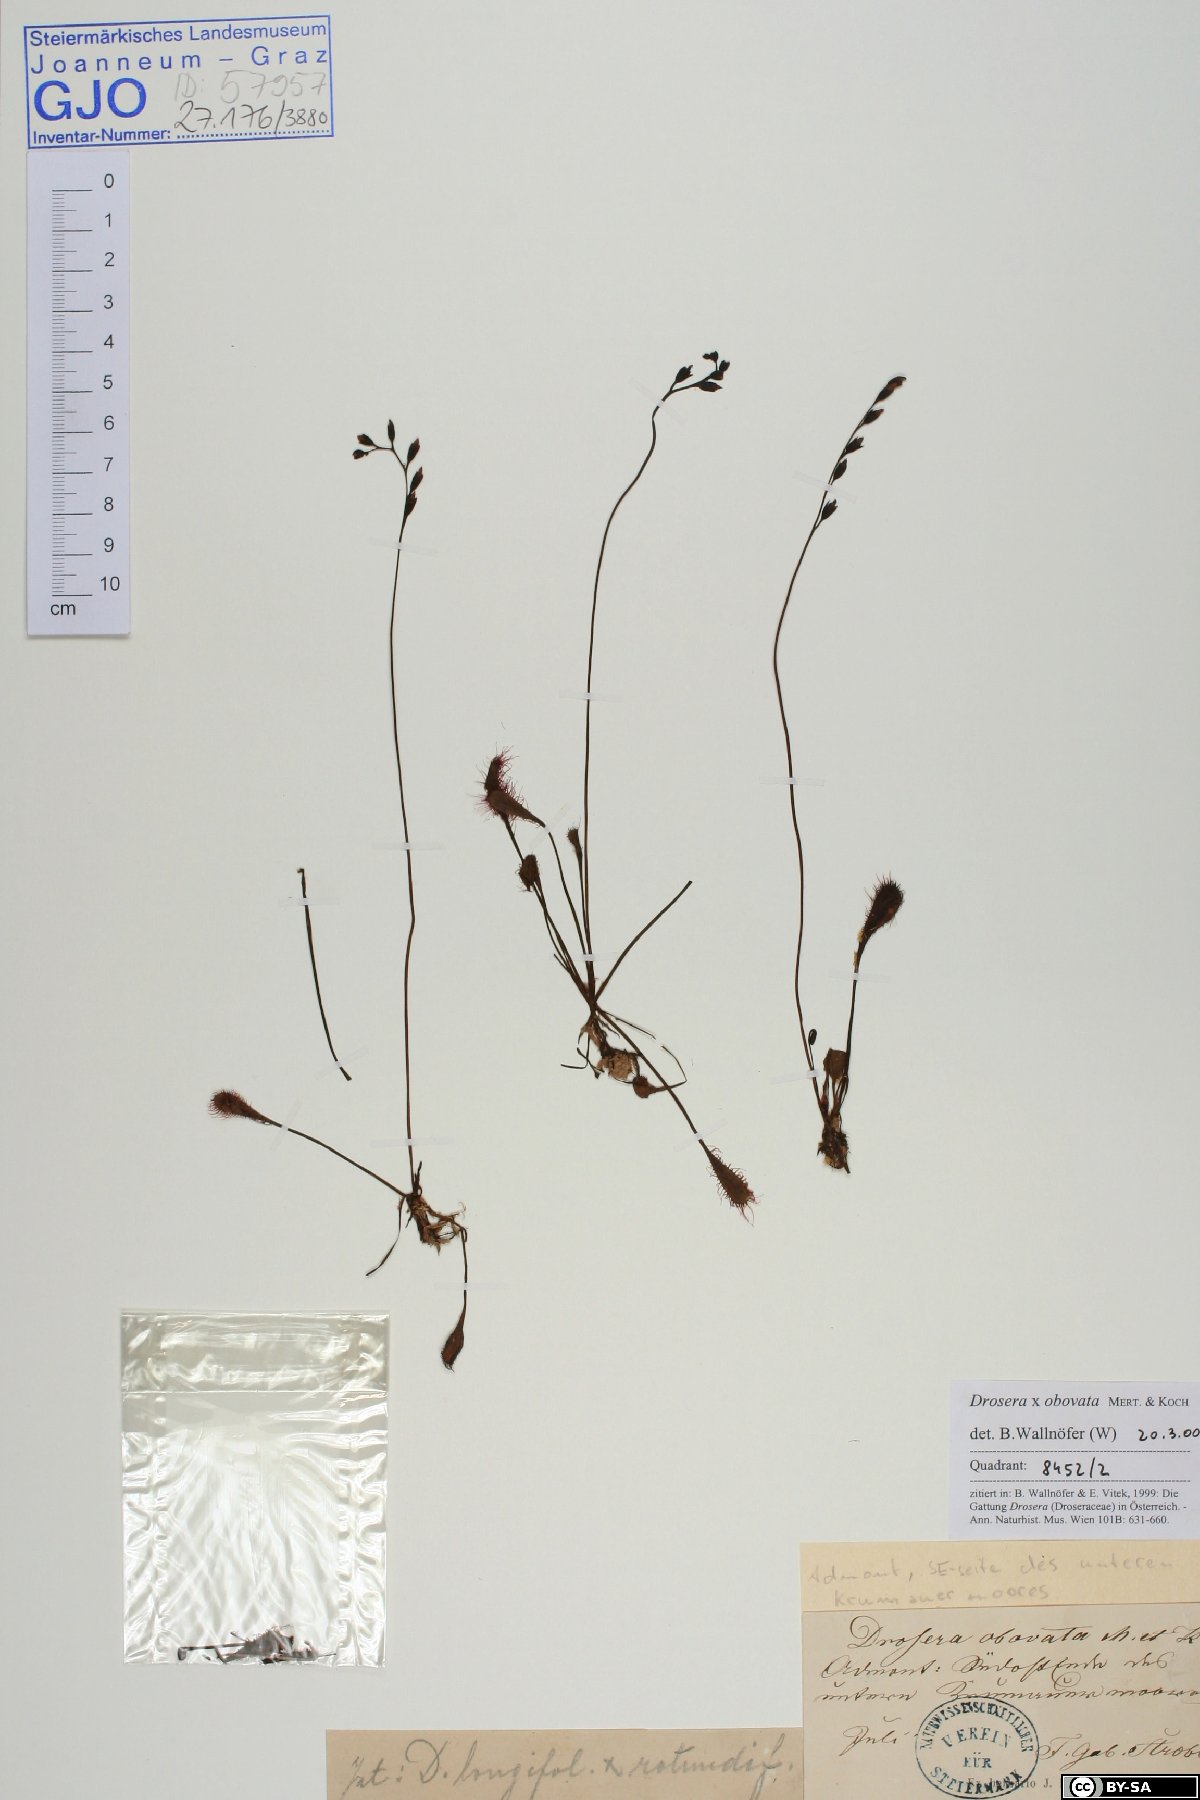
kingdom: Plantae
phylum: Tracheophyta
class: Magnoliopsida
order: Caryophyllales
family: Droseraceae
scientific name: Droseraceae
